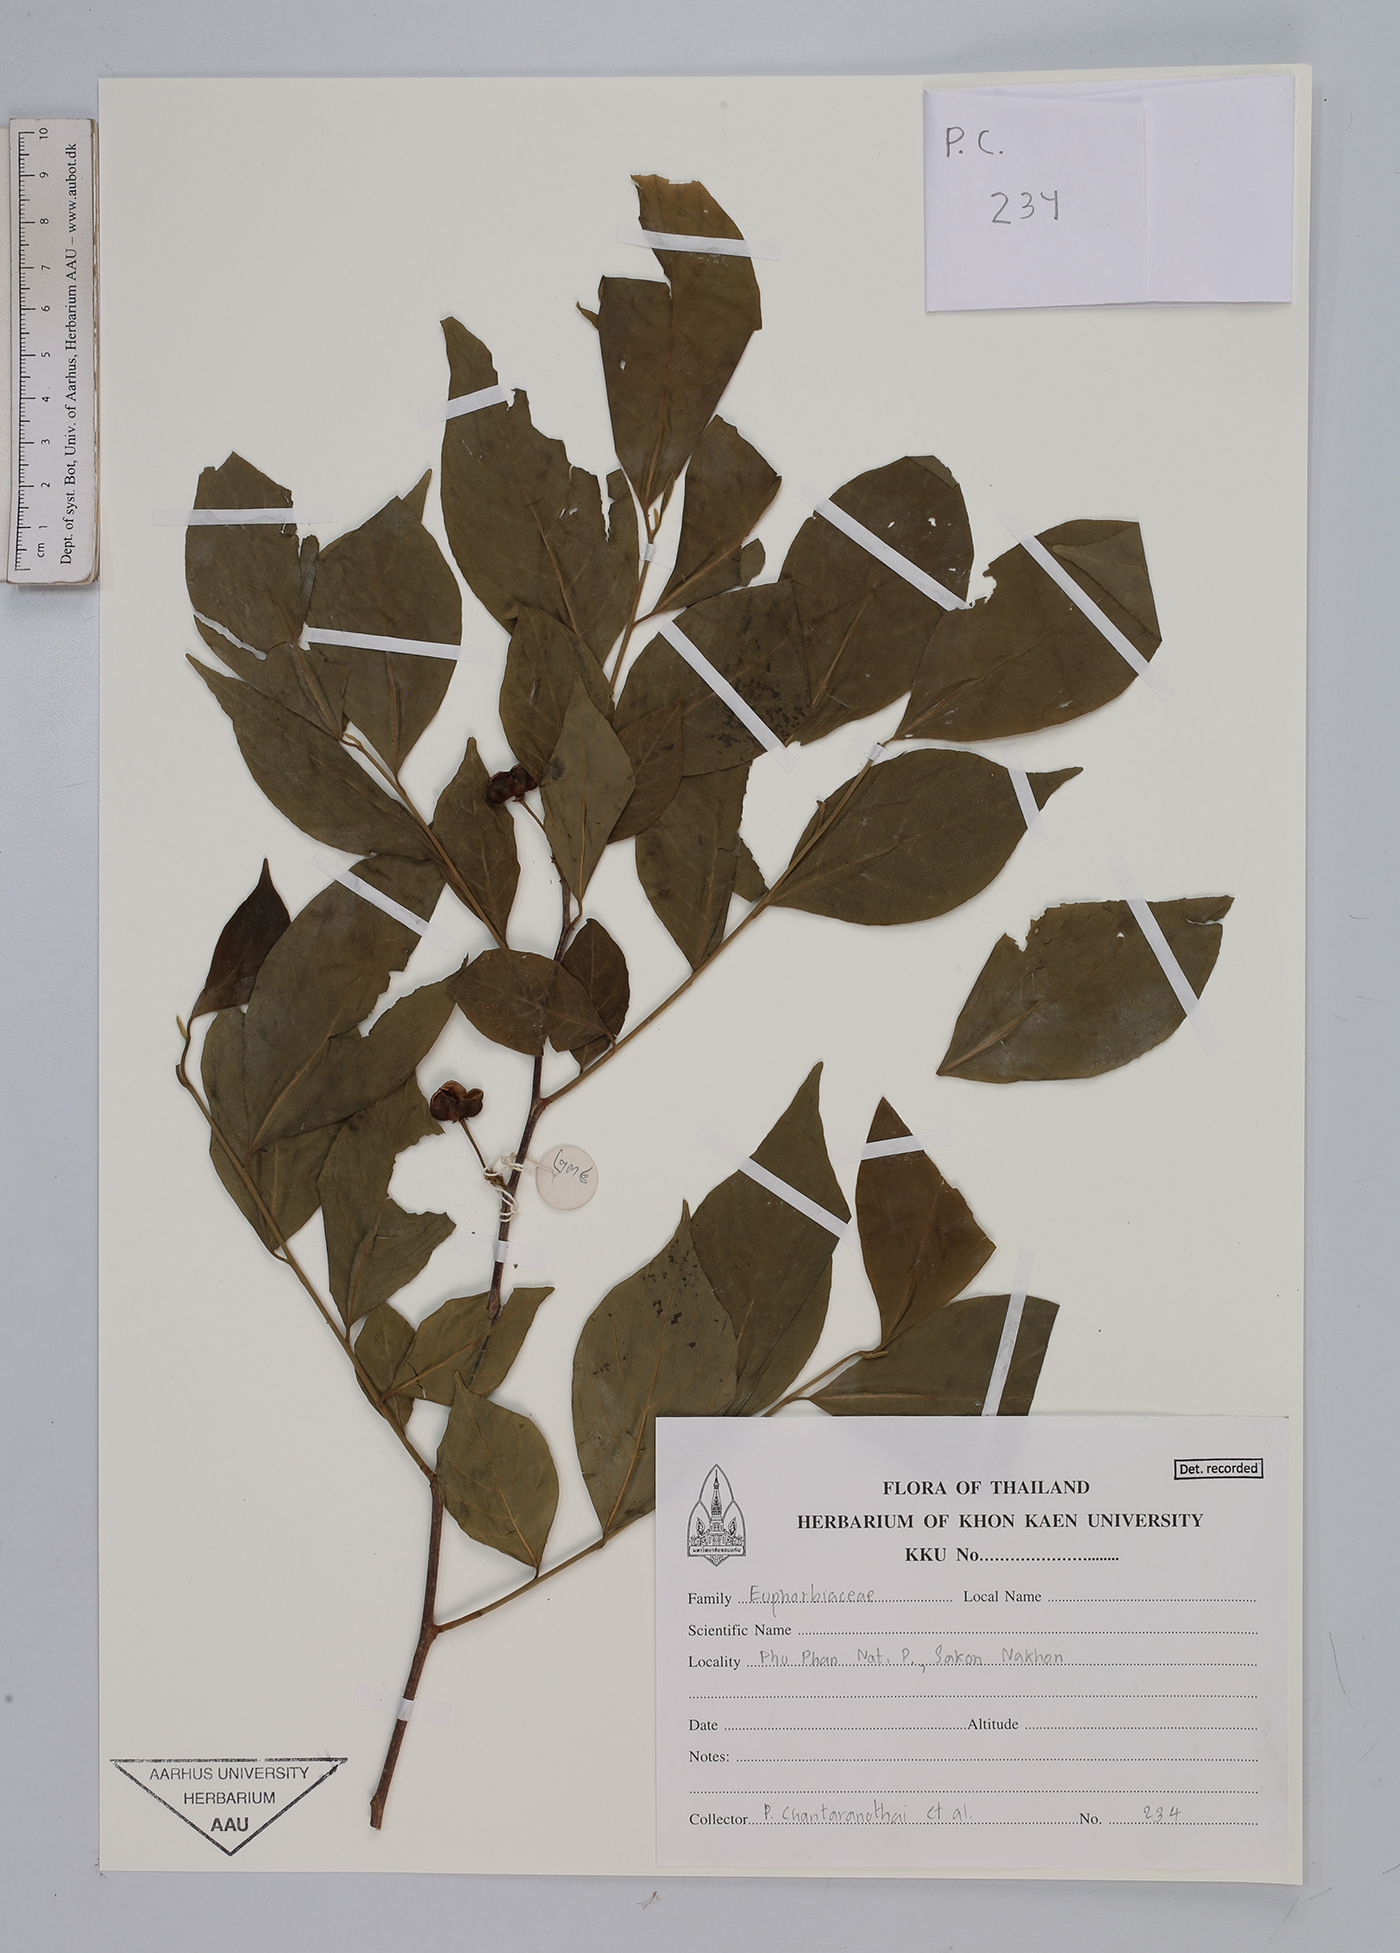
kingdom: Plantae
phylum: Tracheophyta
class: Magnoliopsida
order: Malpighiales
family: Euphorbiaceae
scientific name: Euphorbiaceae
